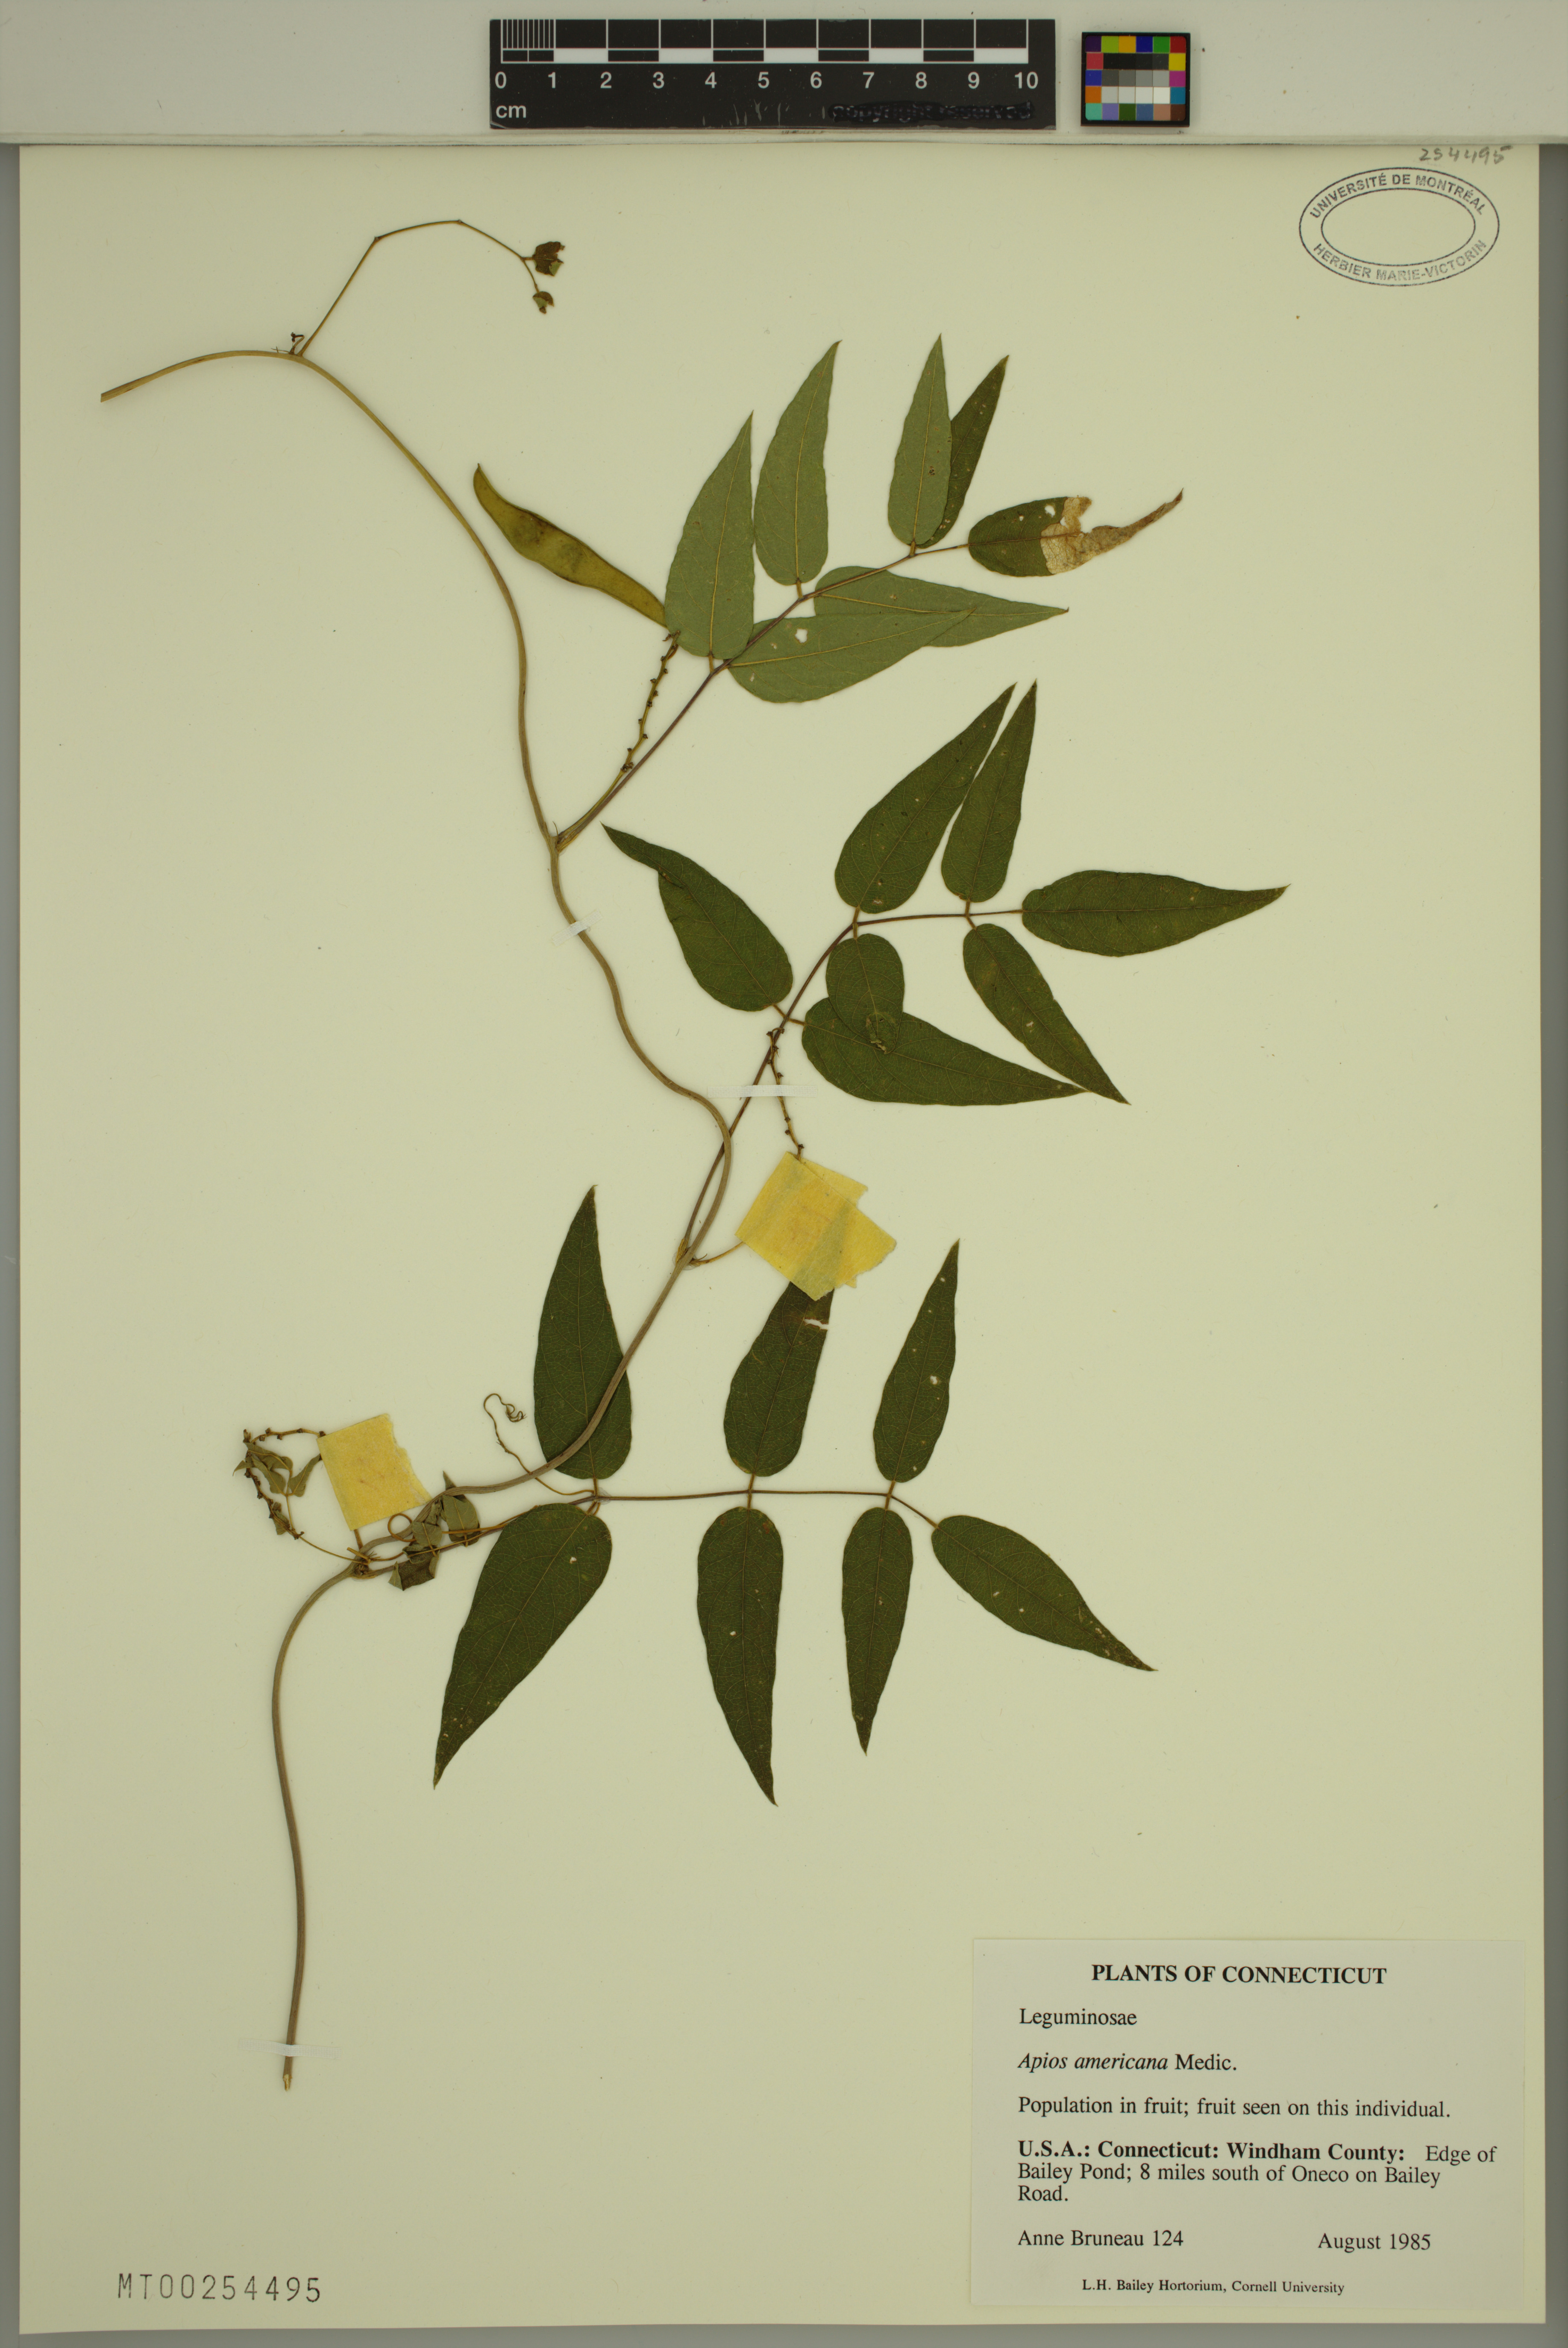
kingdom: Plantae
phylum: Tracheophyta
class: Magnoliopsida
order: Fabales
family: Fabaceae
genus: Apios
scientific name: Apios americana
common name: American potato-bean
